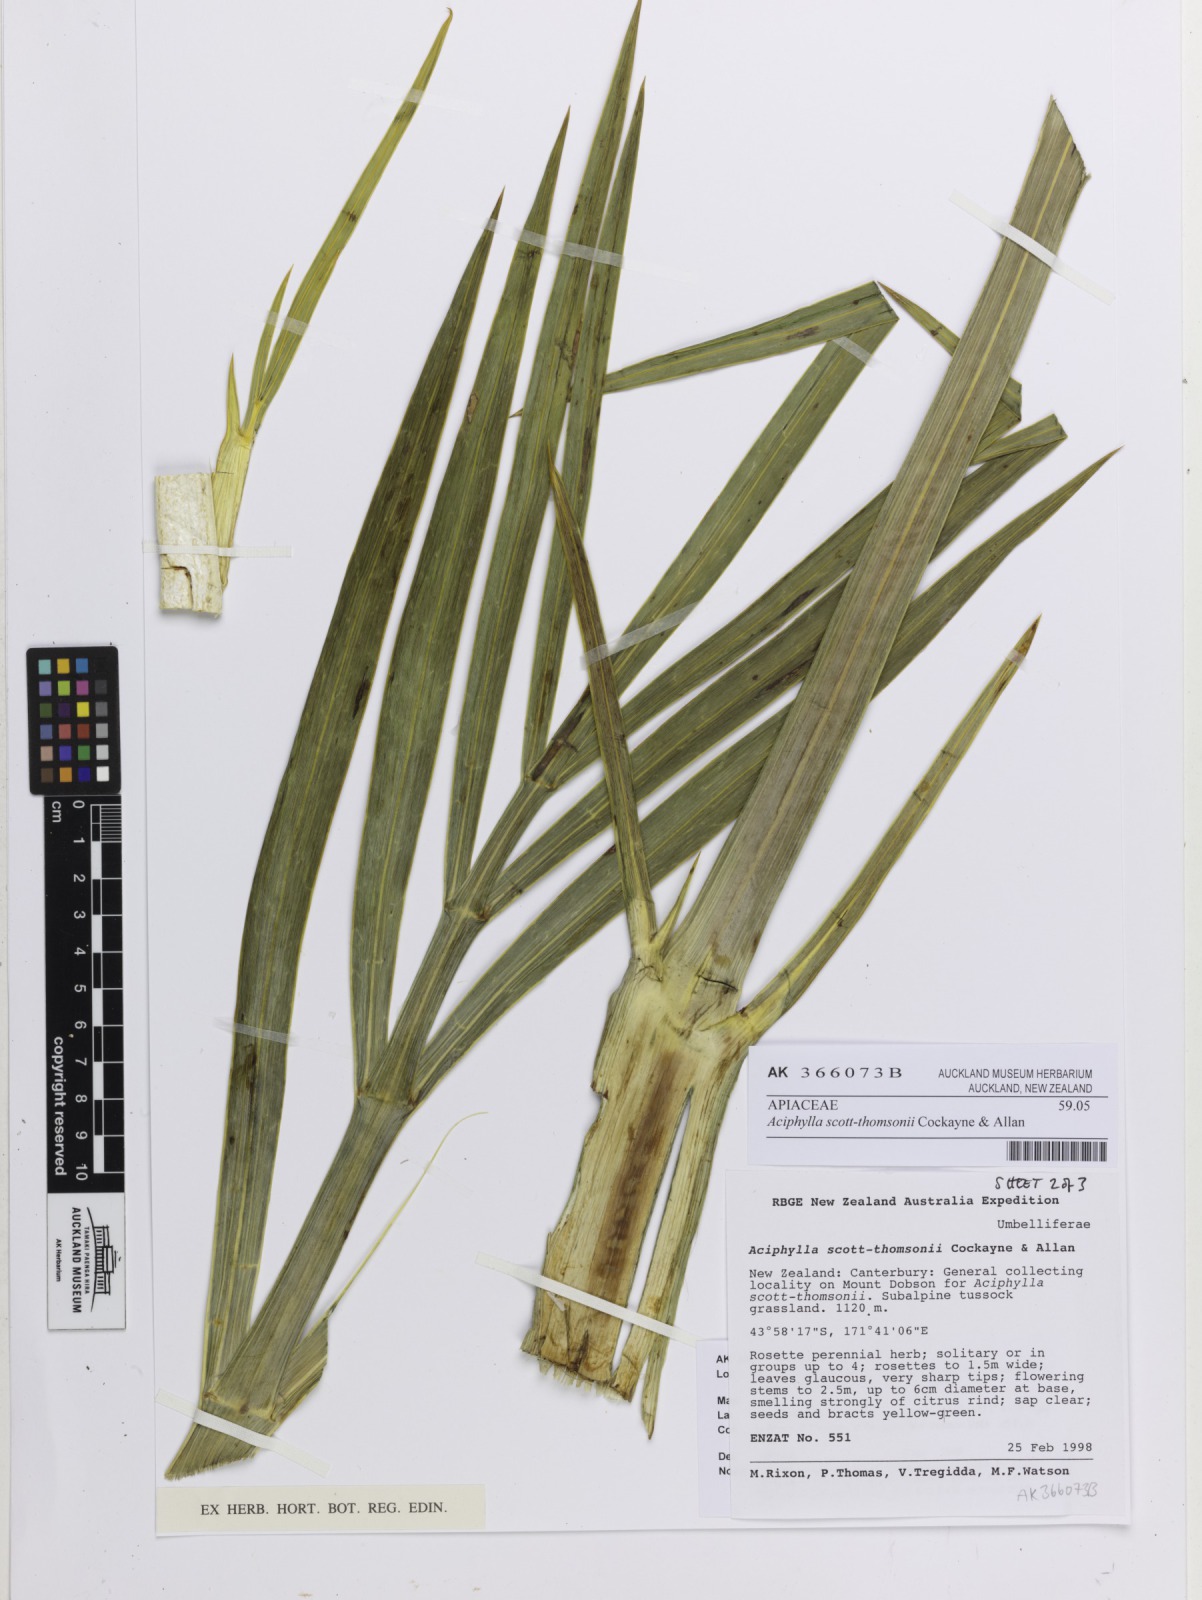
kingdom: Plantae
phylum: Tracheophyta
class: Magnoliopsida
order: Apiales
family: Apiaceae
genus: Aciphylla
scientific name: Aciphylla scott-thomsonii
